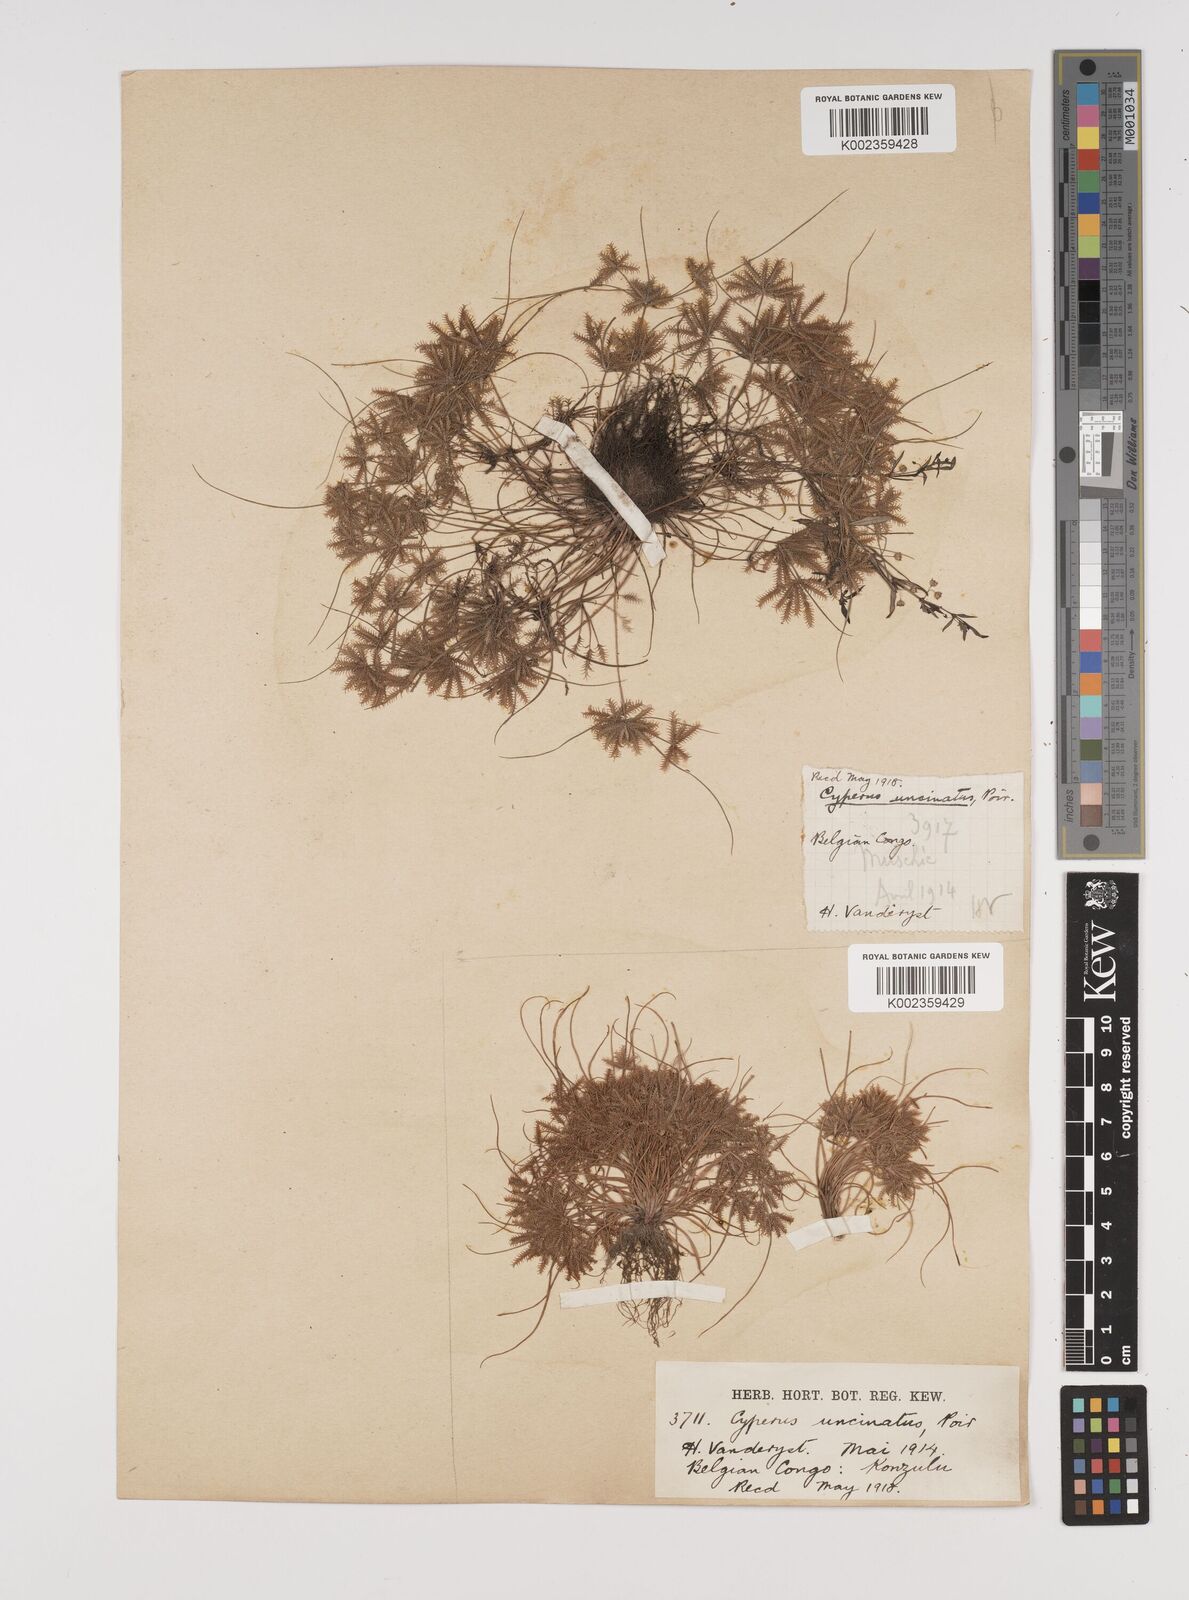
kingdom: Plantae
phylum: Tracheophyta
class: Liliopsida
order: Poales
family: Cyperaceae
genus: Cyperus
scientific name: Cyperus cuspidatus
